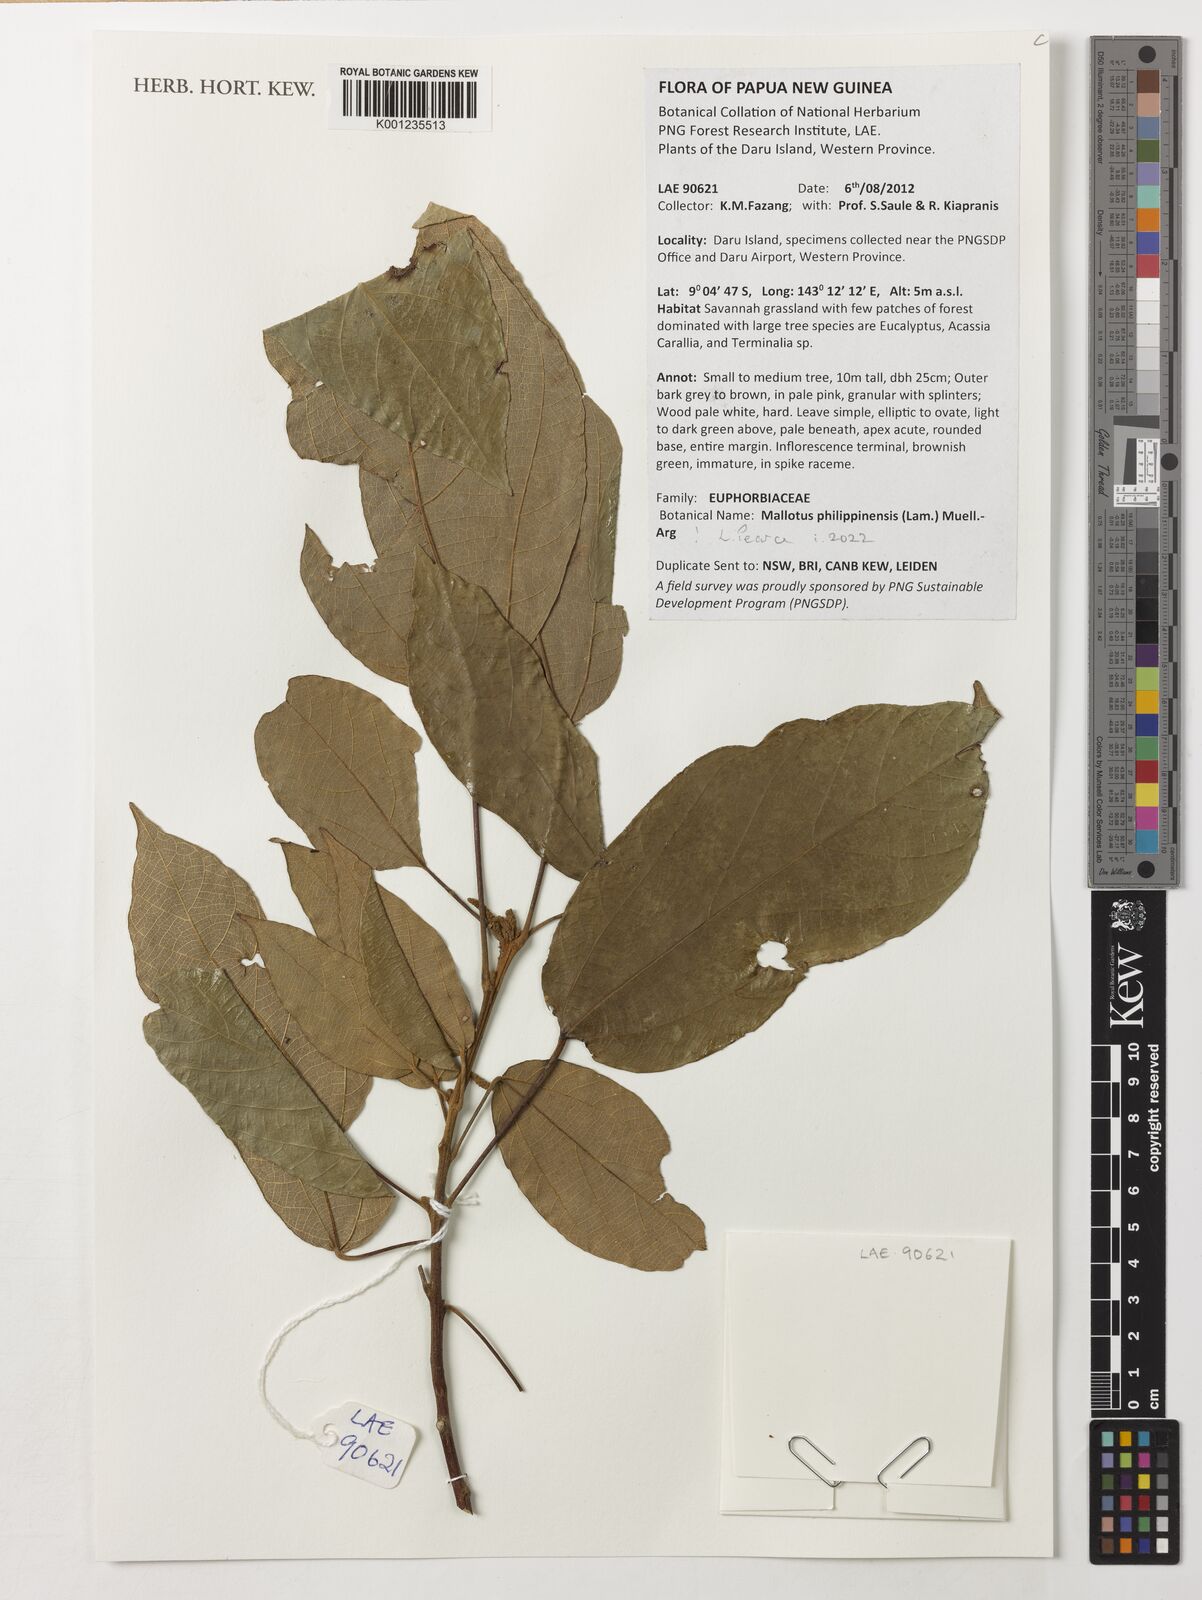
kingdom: Plantae
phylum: Tracheophyta
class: Magnoliopsida
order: Malpighiales
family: Euphorbiaceae
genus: Mallotus
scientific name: Mallotus philippensis
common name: Kamala tree
